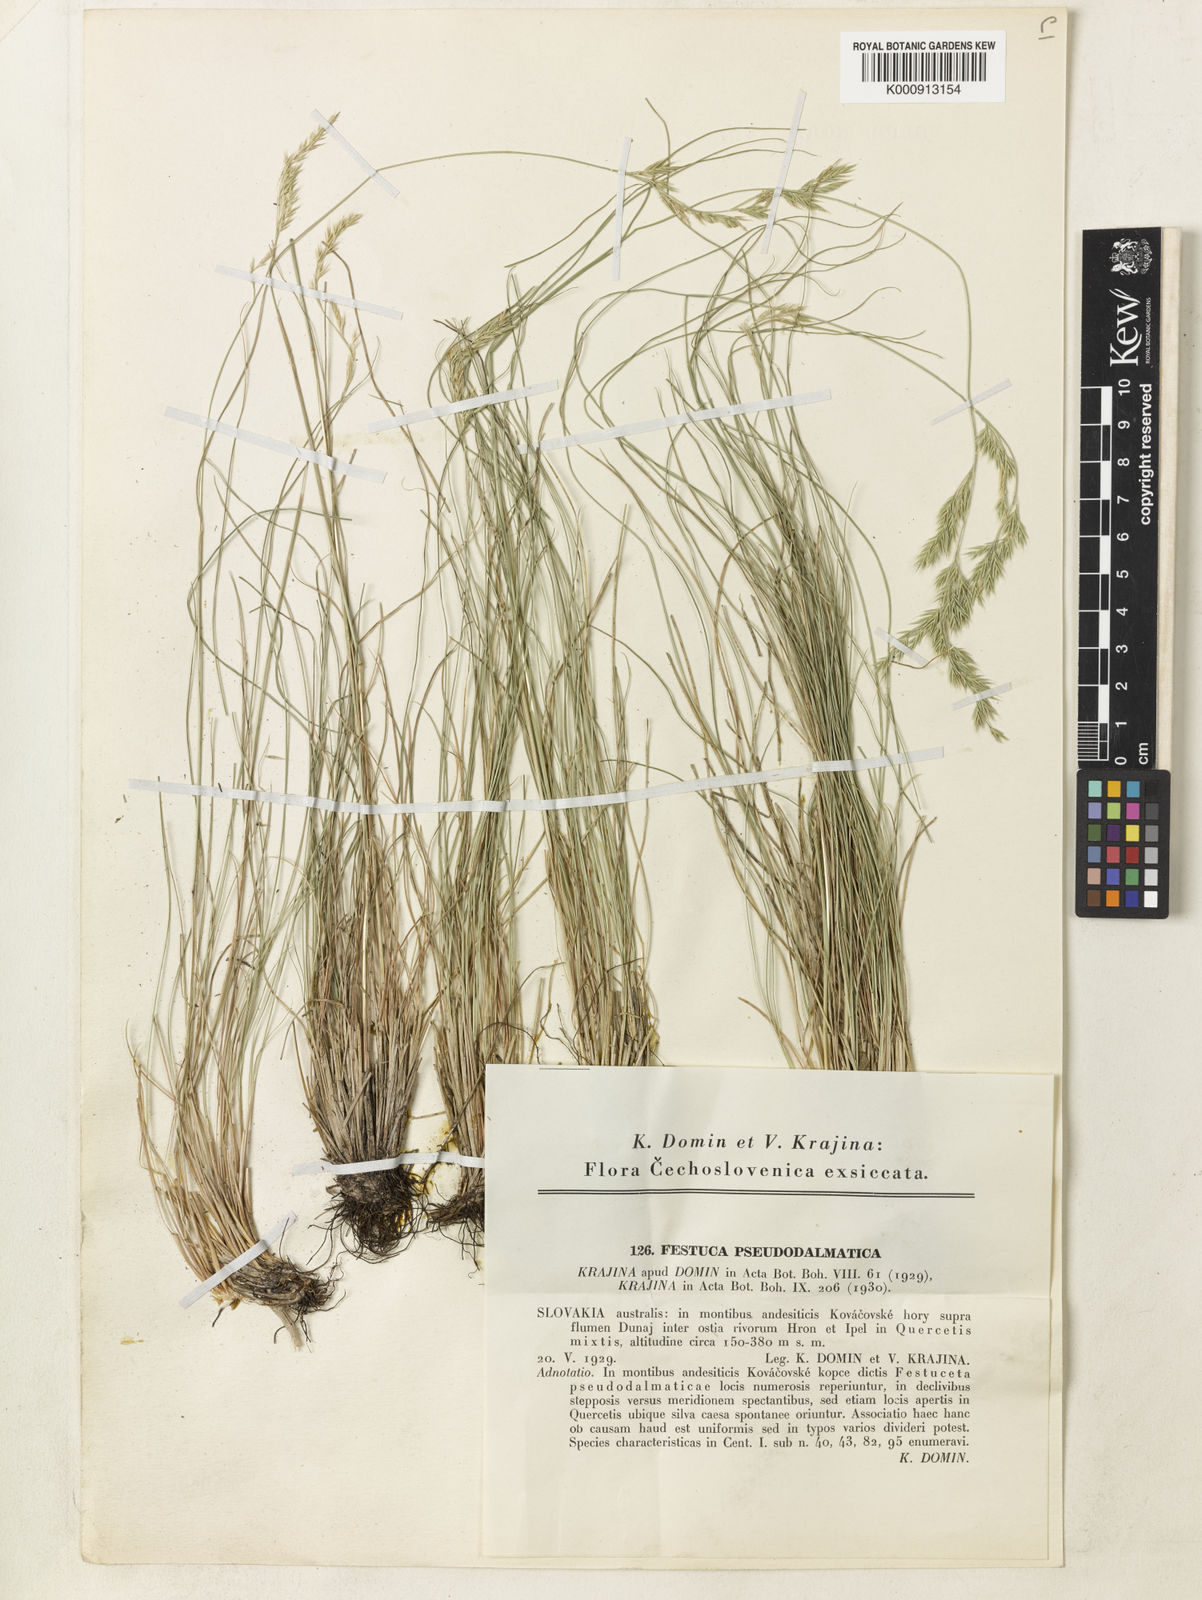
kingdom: Plantae
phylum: Tracheophyta
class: Liliopsida
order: Poales
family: Poaceae
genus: Festuca
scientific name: Festuca pseudodalmatica
